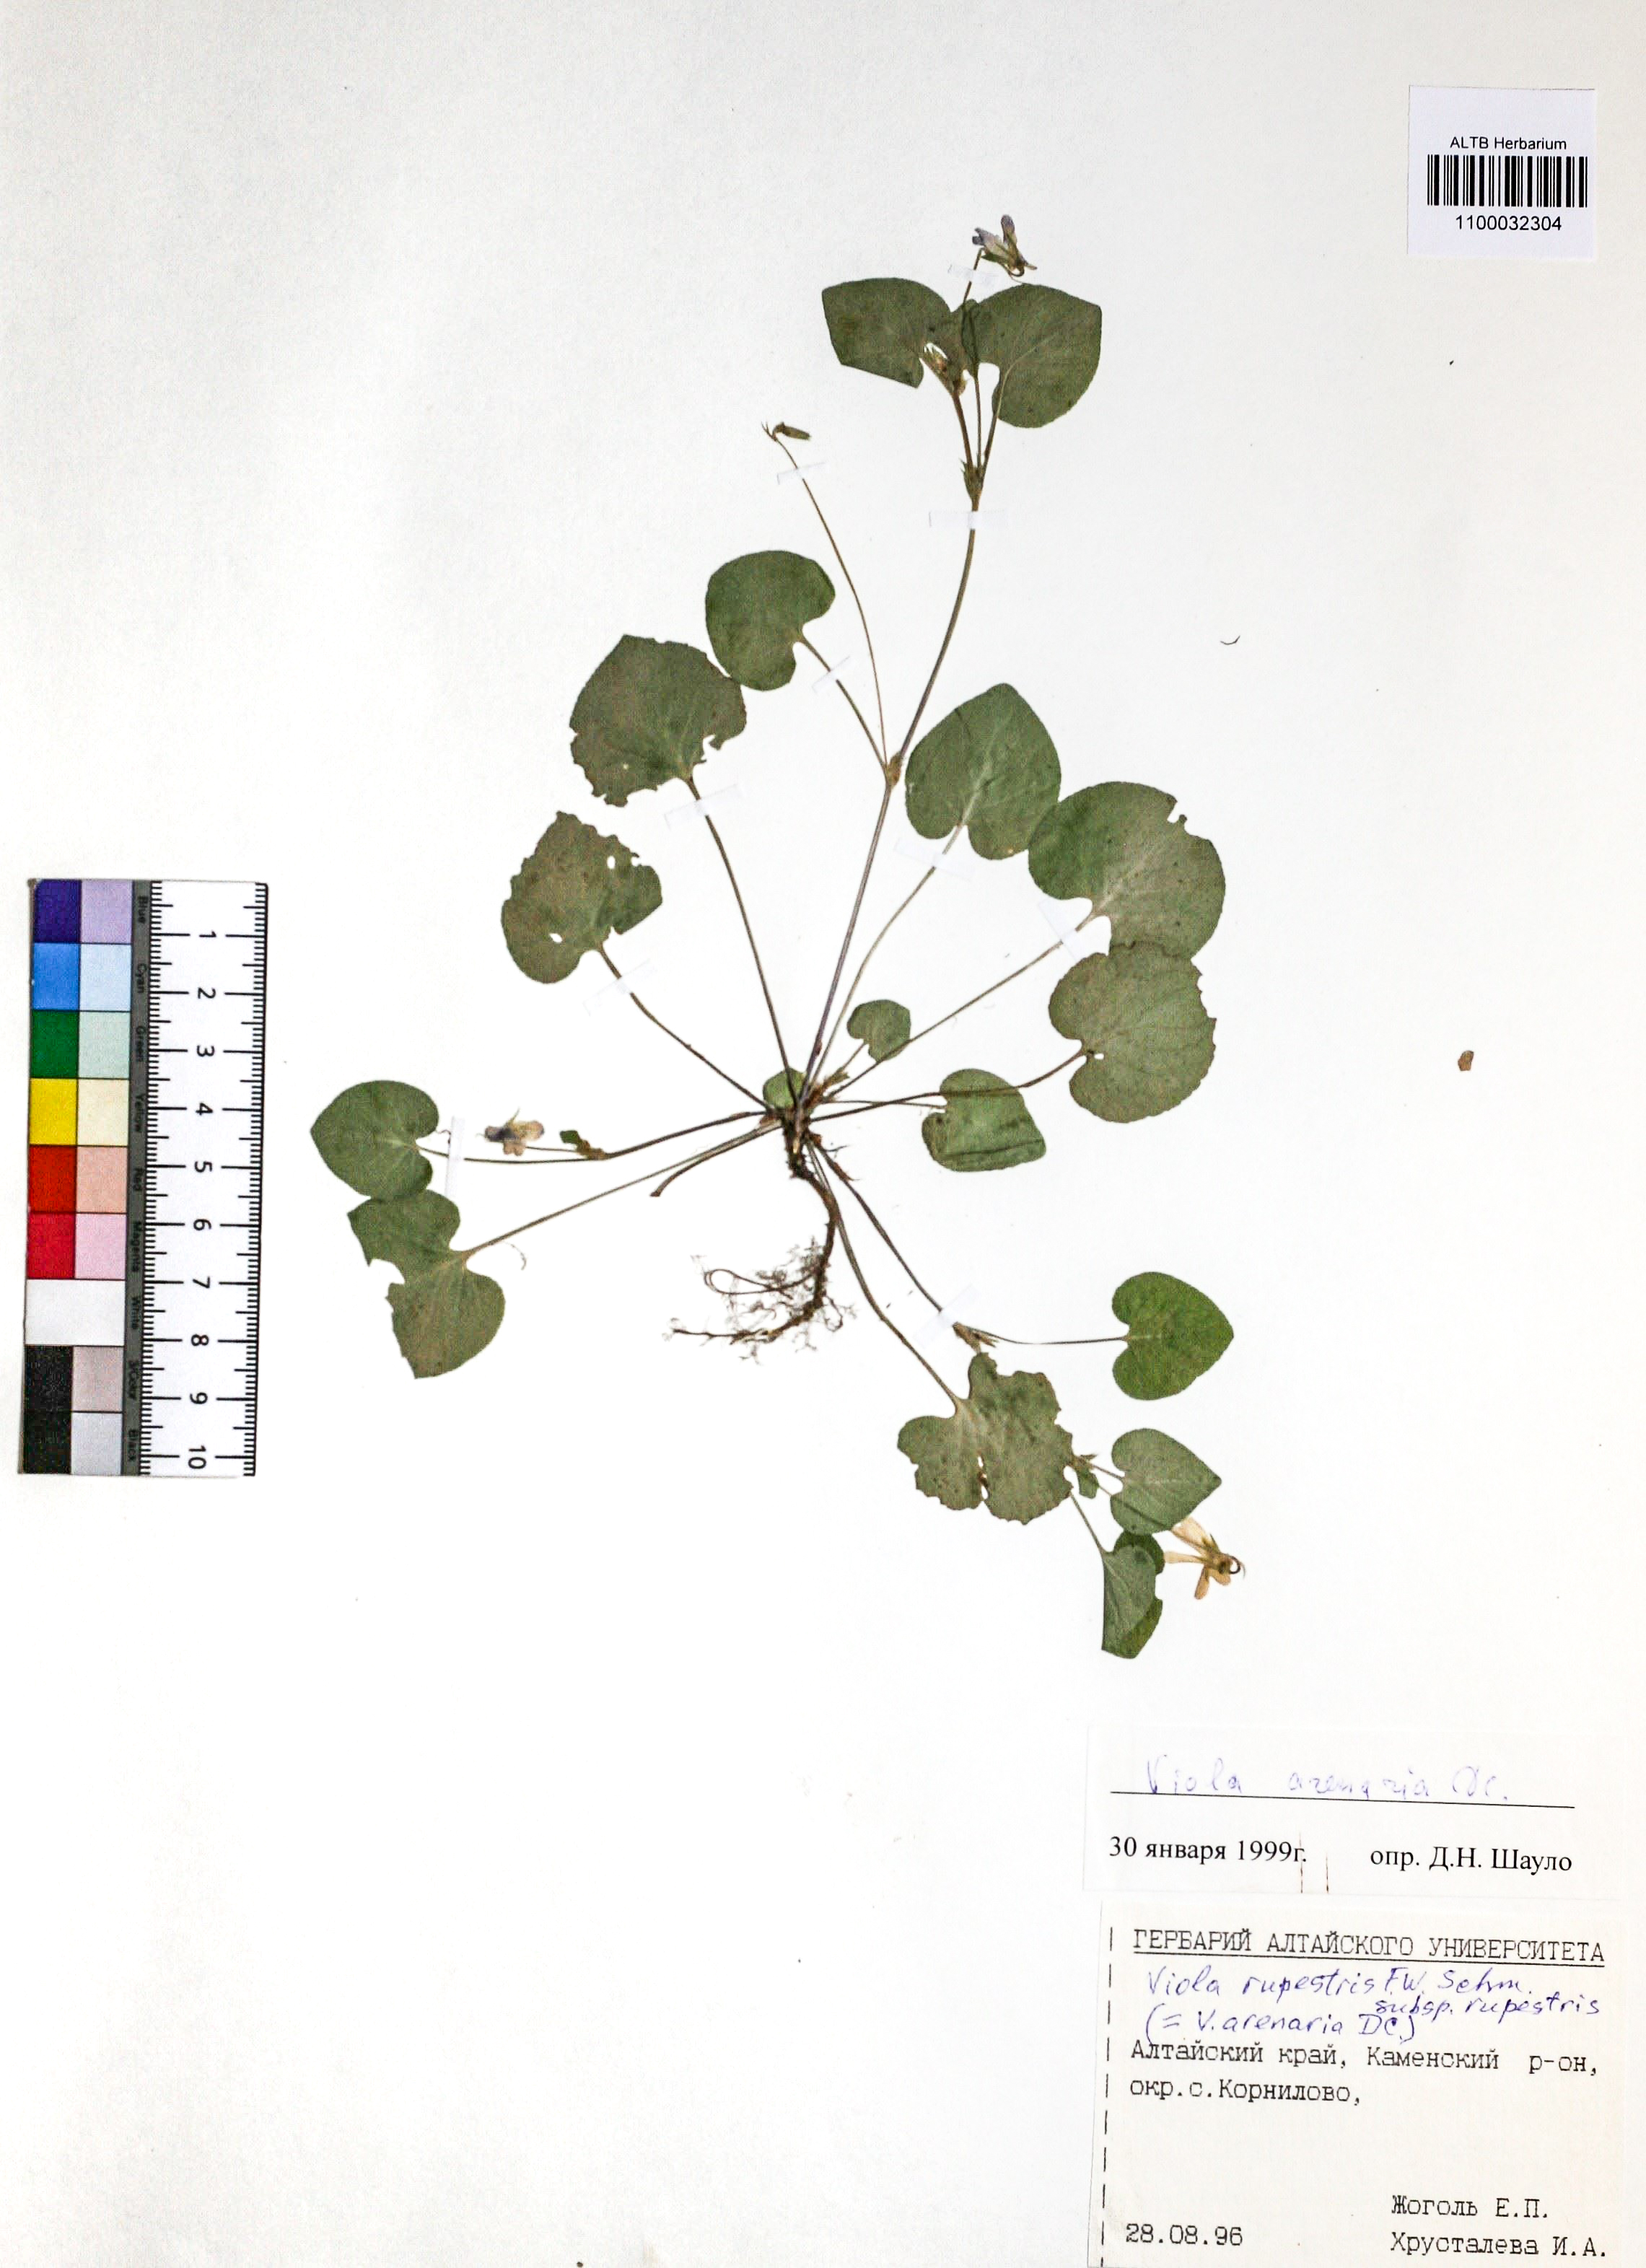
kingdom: Plantae
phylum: Tracheophyta
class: Magnoliopsida
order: Malpighiales
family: Violaceae
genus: Viola
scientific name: Viola rupestris
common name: Teesdale violet
